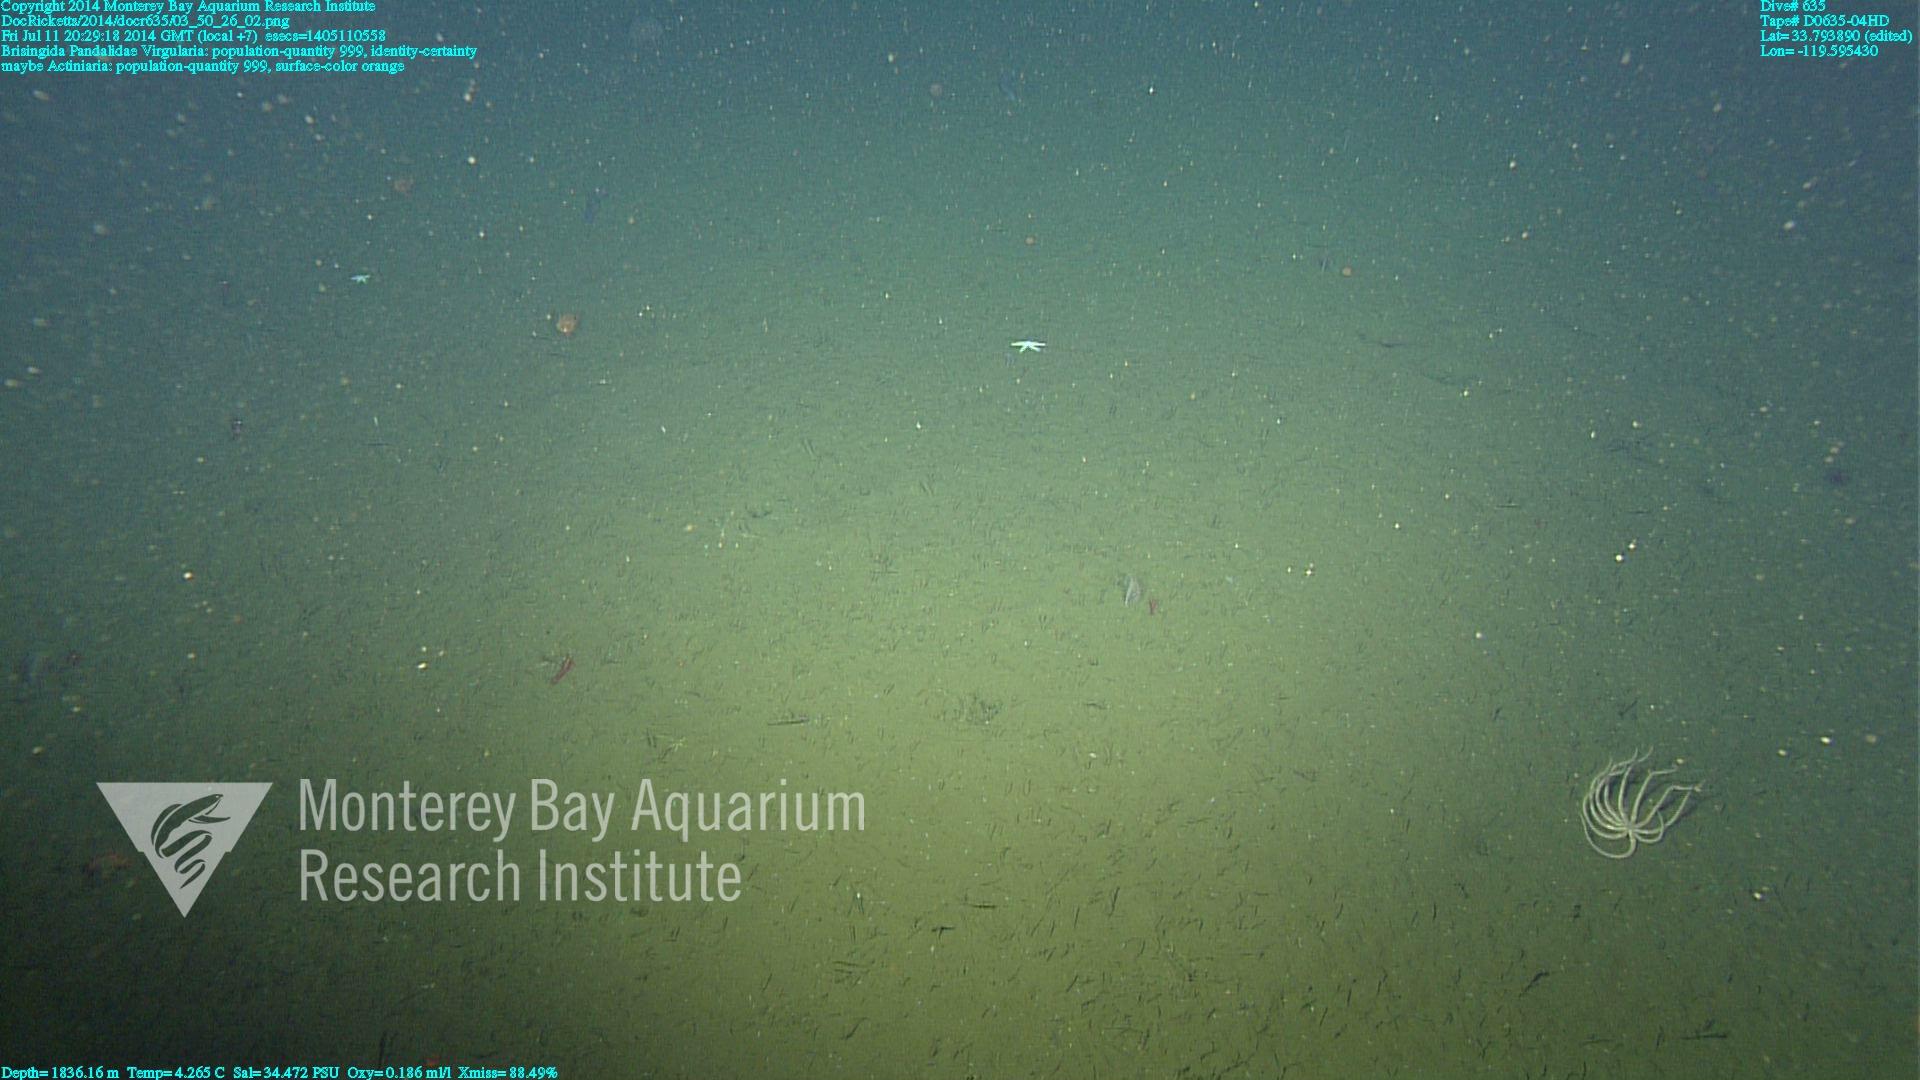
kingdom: Animalia
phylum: Cnidaria
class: Anthozoa
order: Scleralcyonacea
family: Virgulariidae
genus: Virgularia
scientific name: Virgularia
